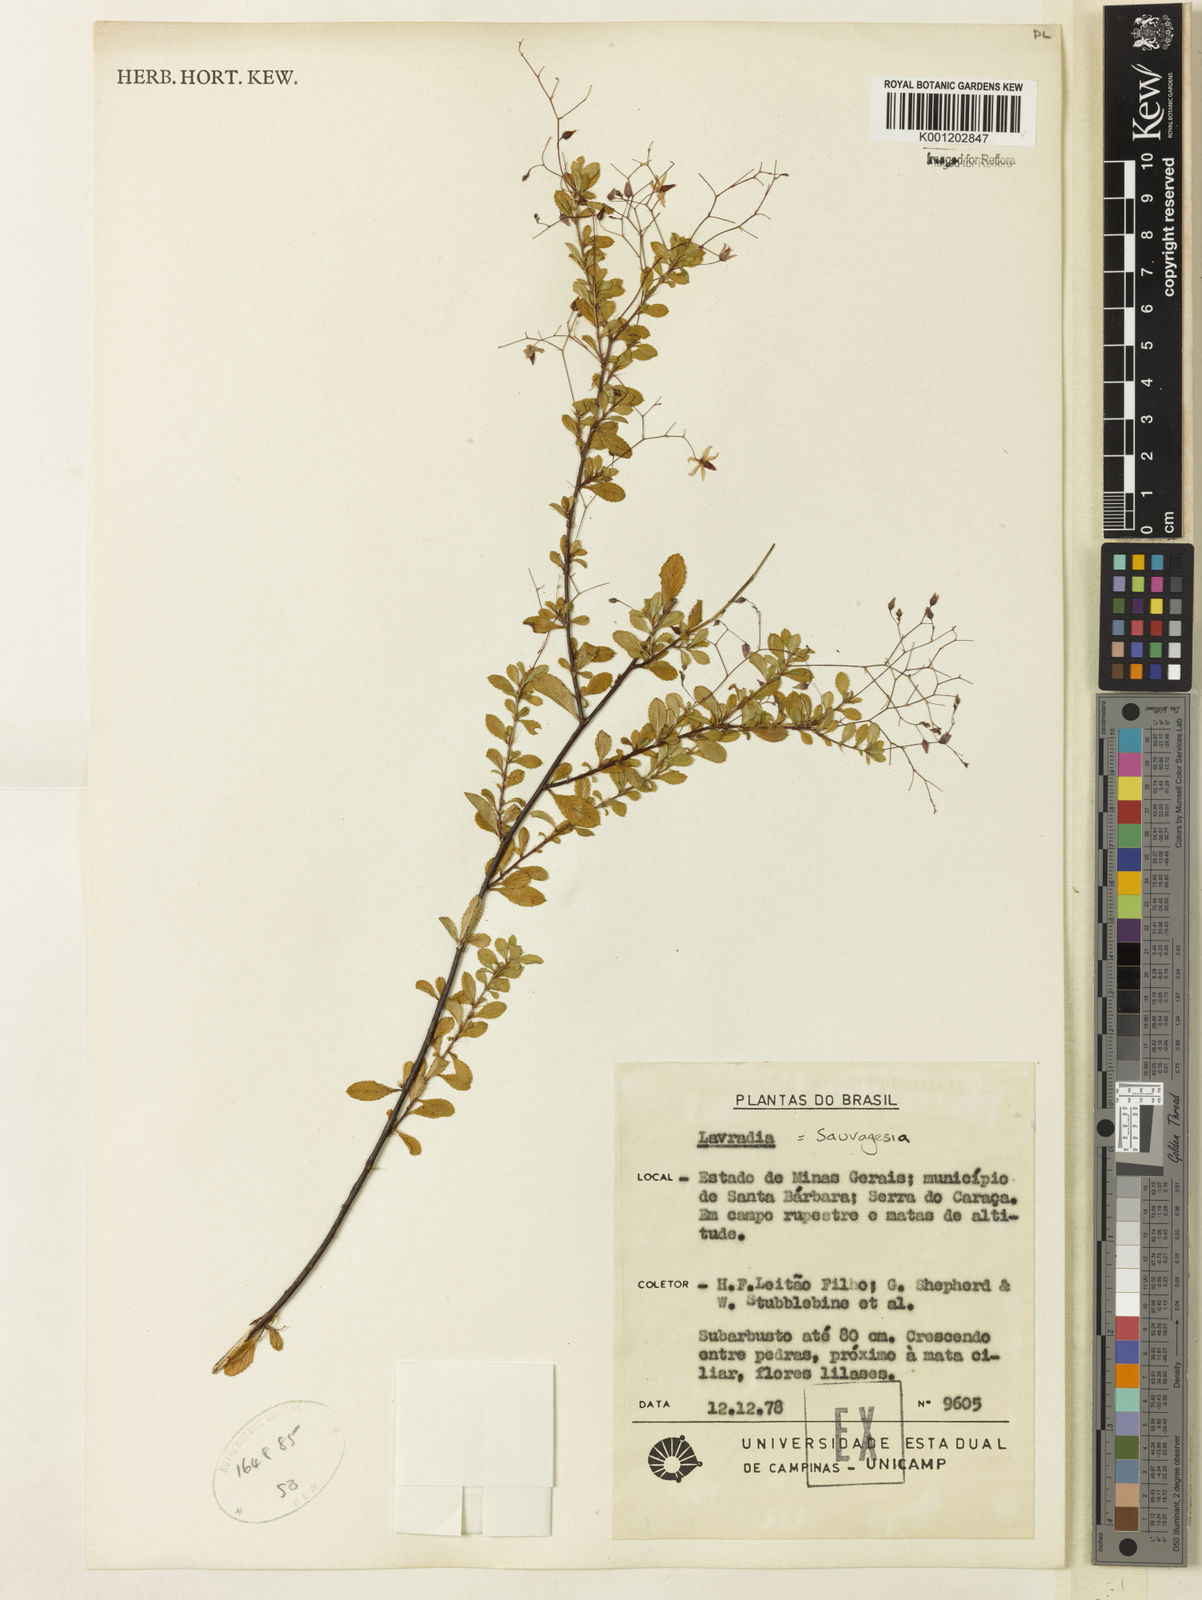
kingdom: Plantae
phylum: Tracheophyta
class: Magnoliopsida
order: Malpighiales
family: Ochnaceae
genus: Sauvagesia
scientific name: Sauvagesia capillaris
